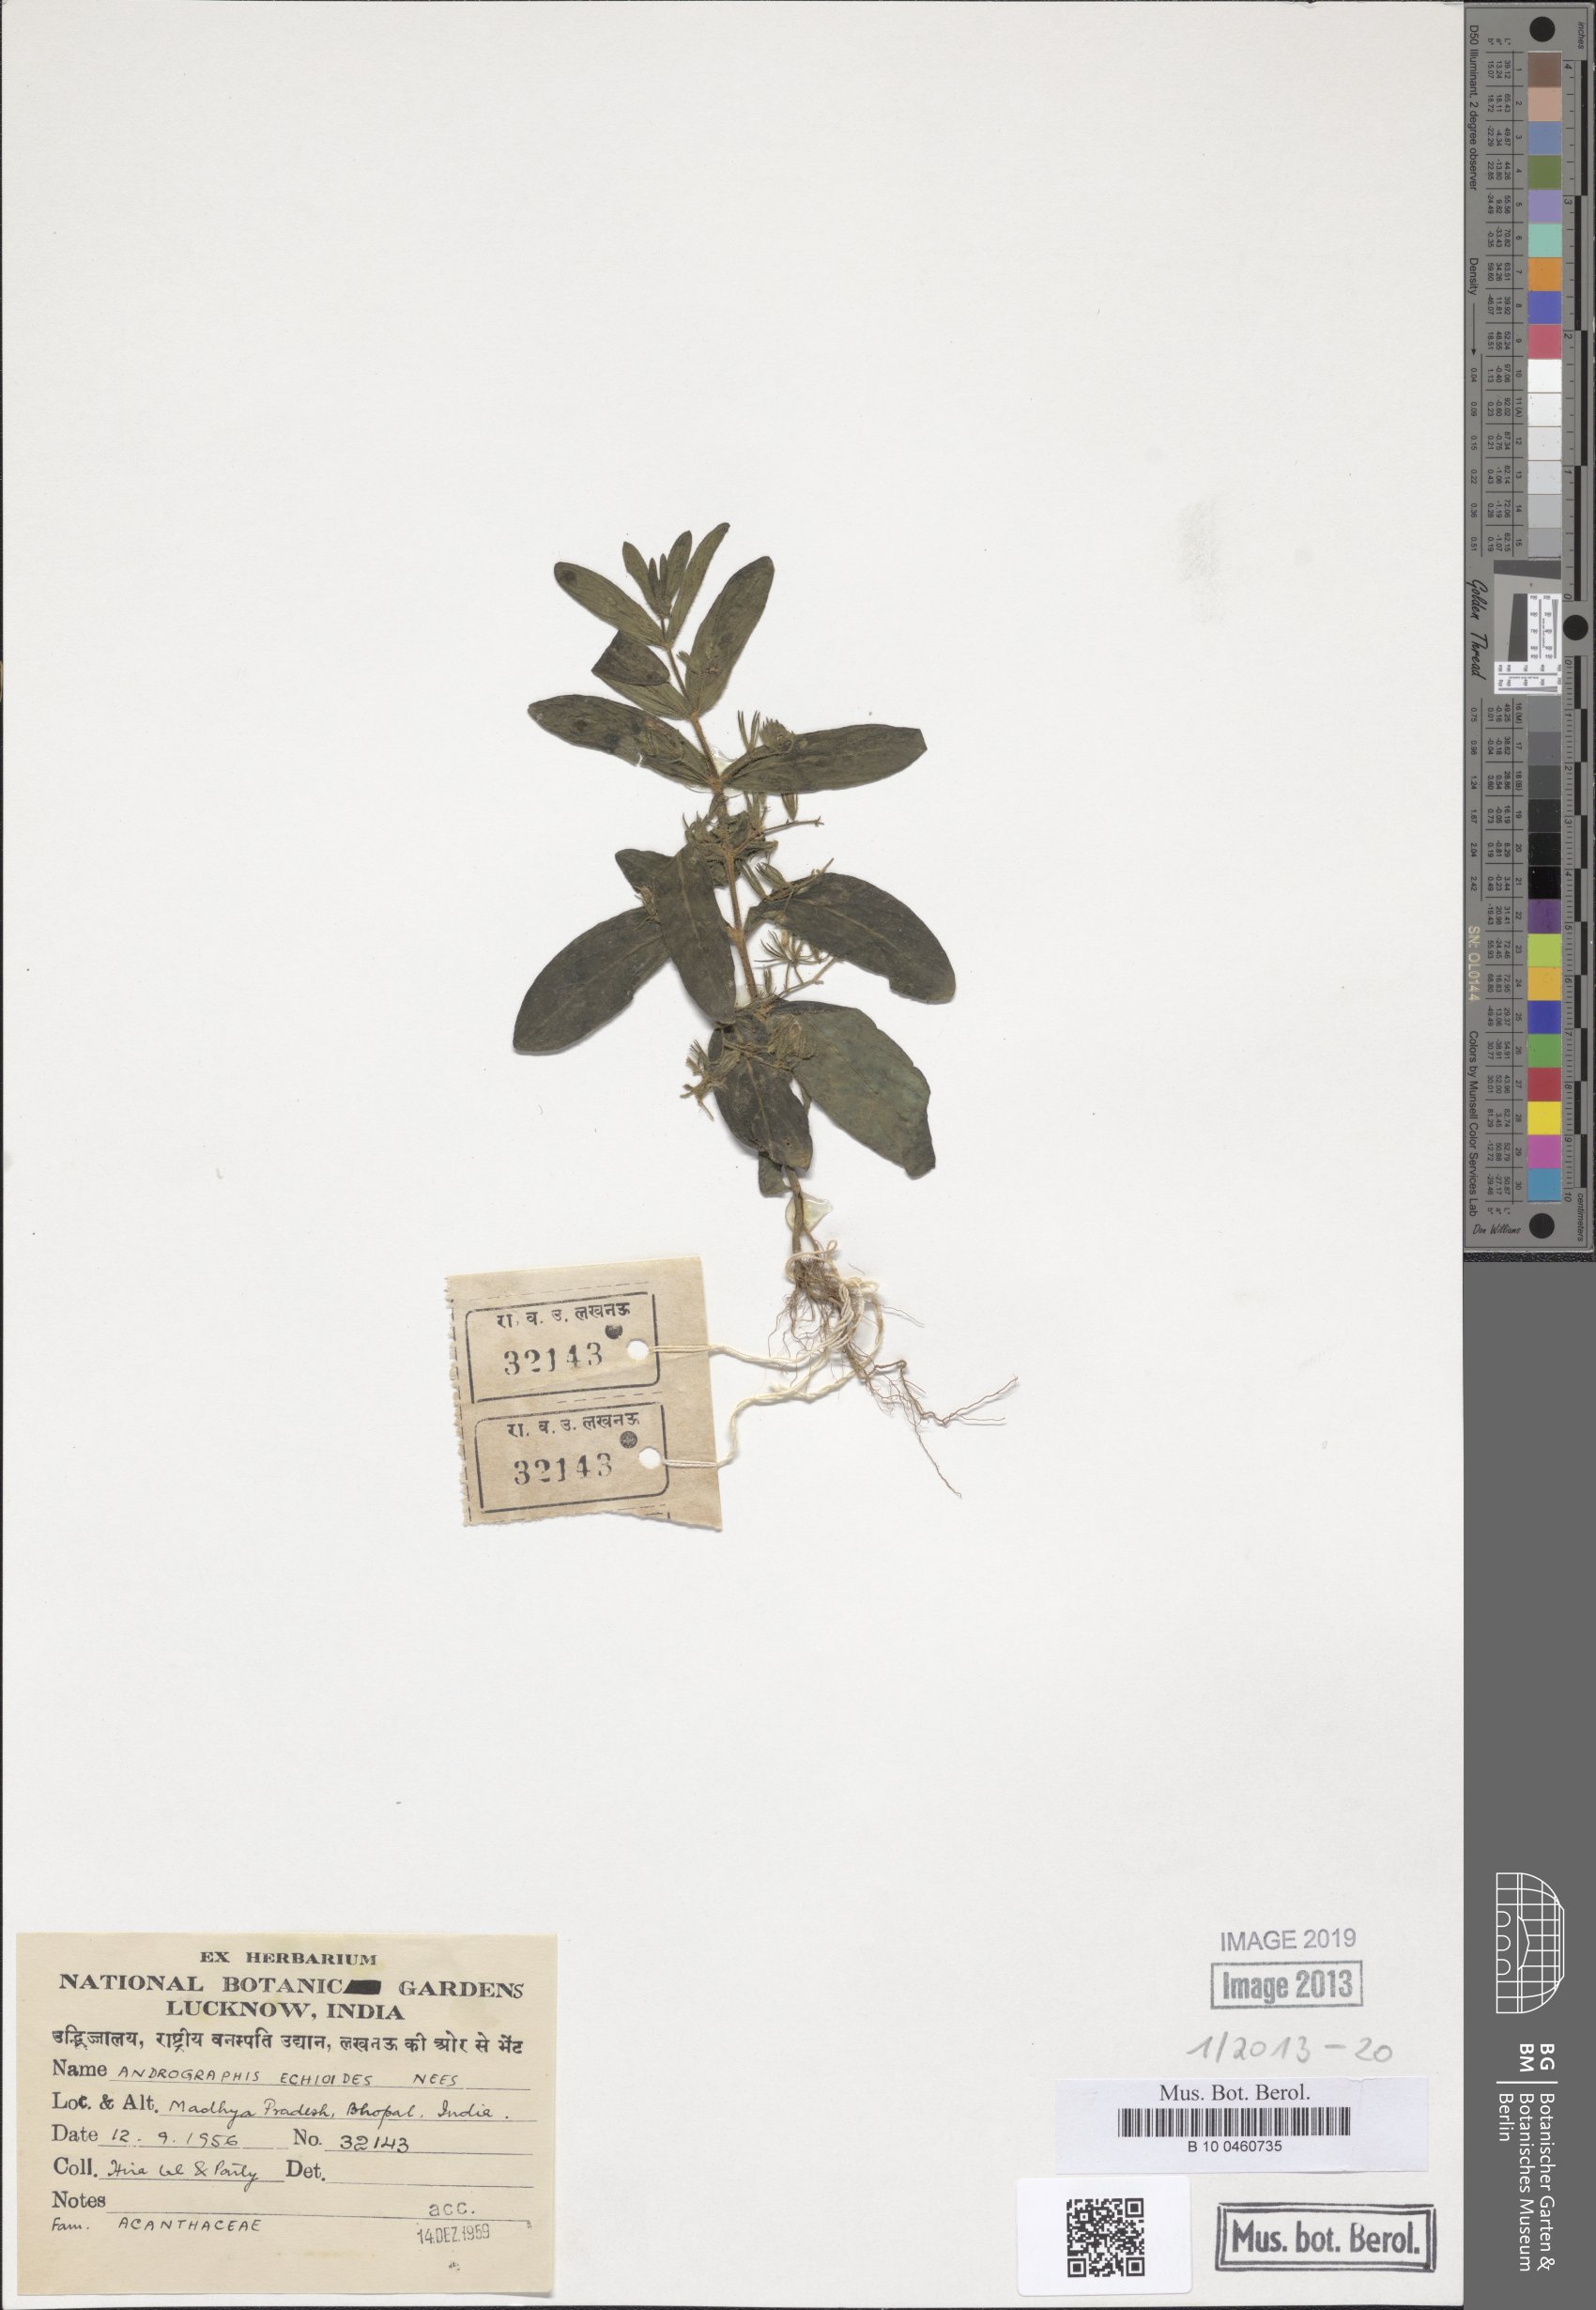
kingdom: Plantae
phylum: Tracheophyta
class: Magnoliopsida
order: Lamiales
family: Acanthaceae
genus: Andrographis
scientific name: Andrographis echioides
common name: False waterwillow
